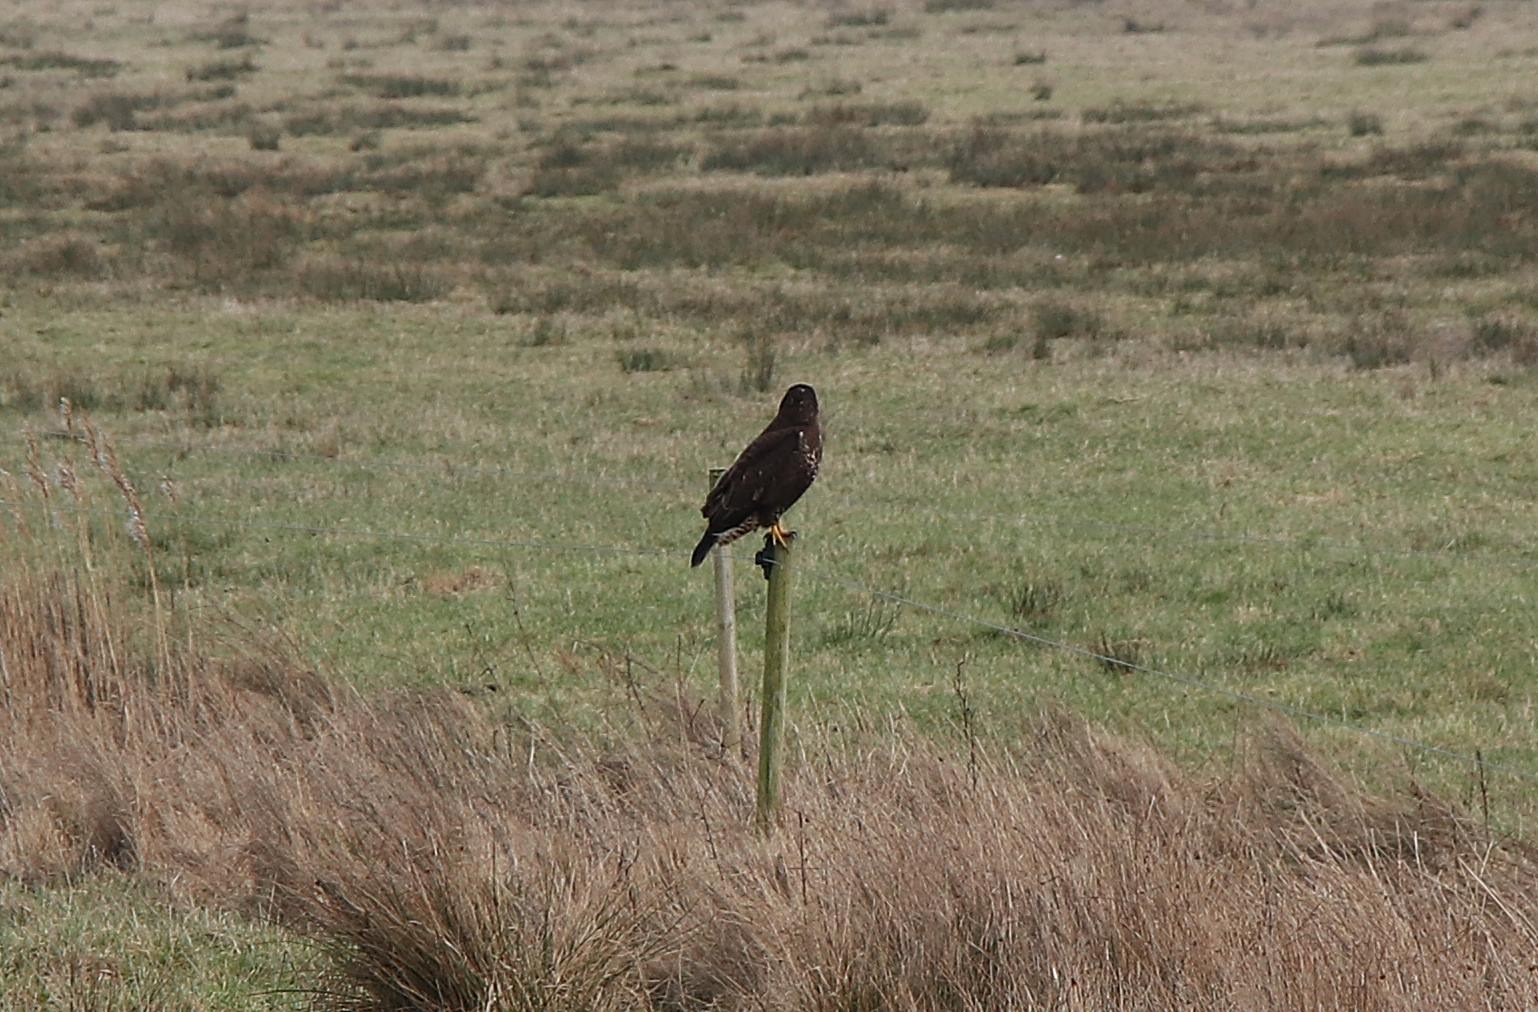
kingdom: Animalia
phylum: Chordata
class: Aves
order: Accipitriformes
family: Accipitridae
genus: Buteo
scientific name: Buteo buteo
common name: Musvåge
